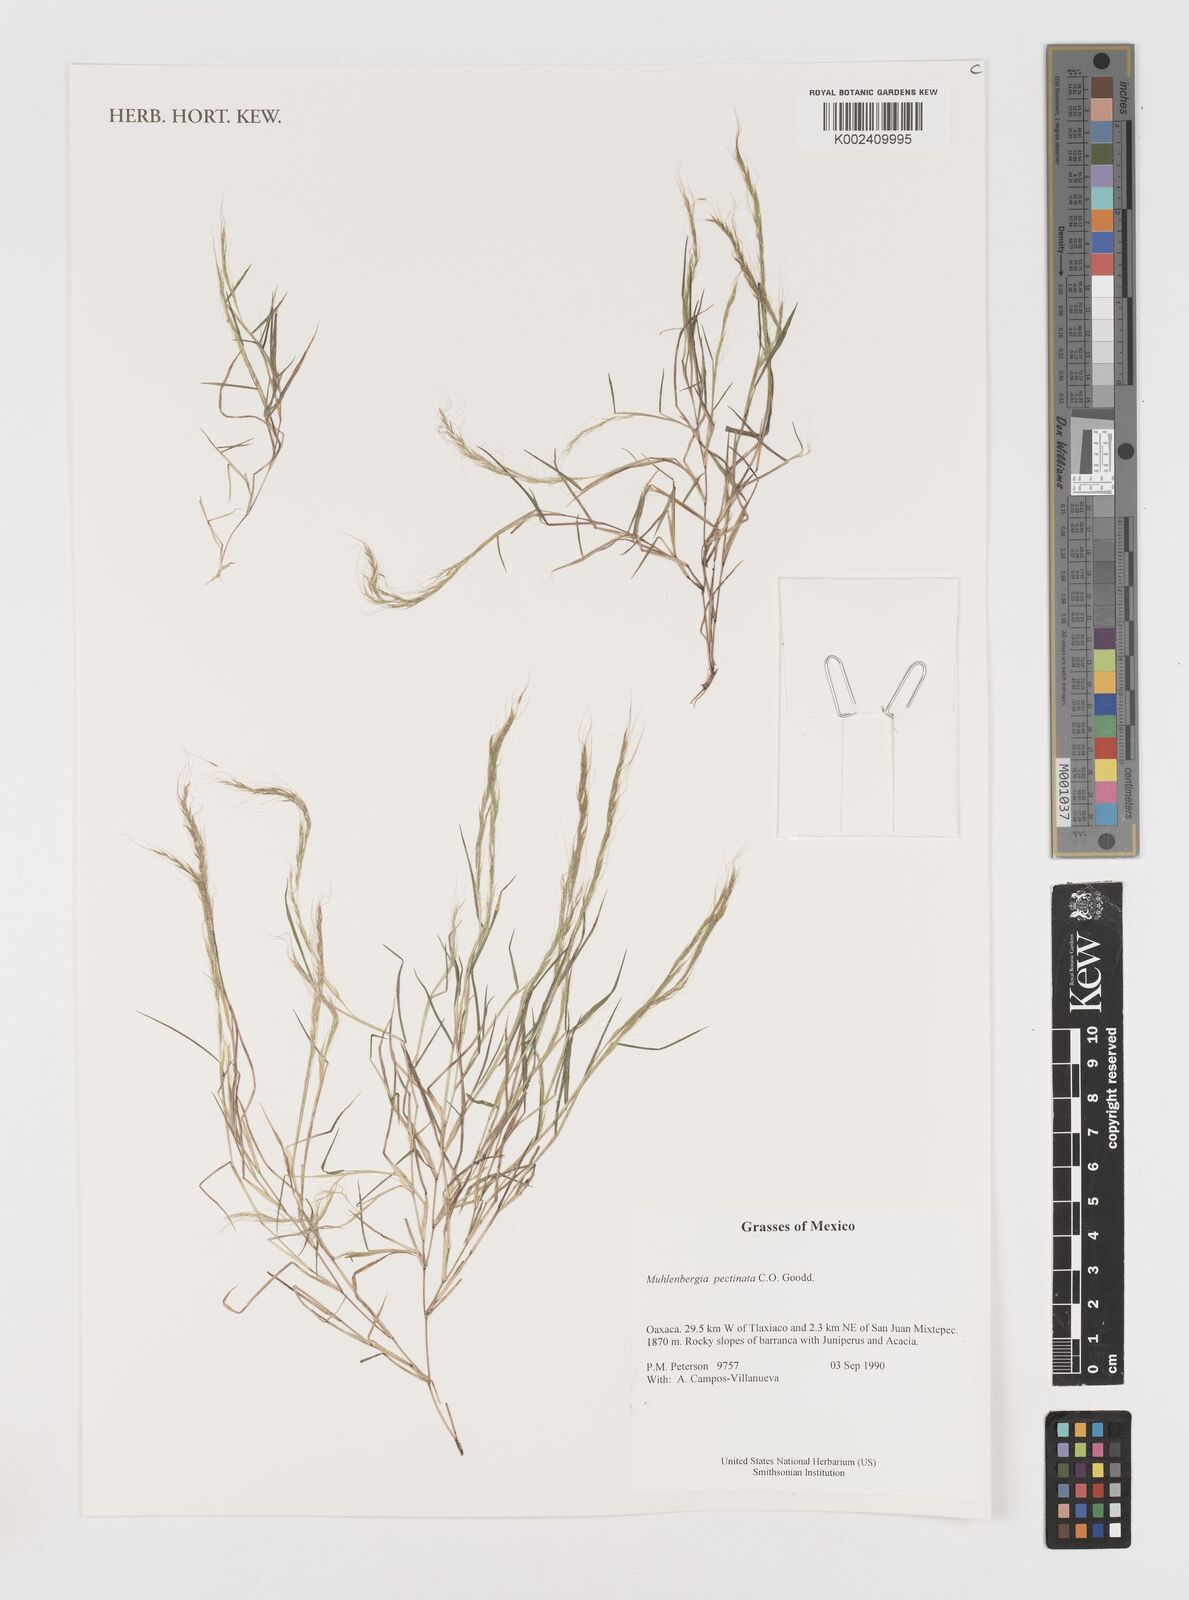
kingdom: Plantae
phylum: Tracheophyta
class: Liliopsida
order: Poales
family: Poaceae
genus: Muhlenbergia
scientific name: Muhlenbergia pectinata
